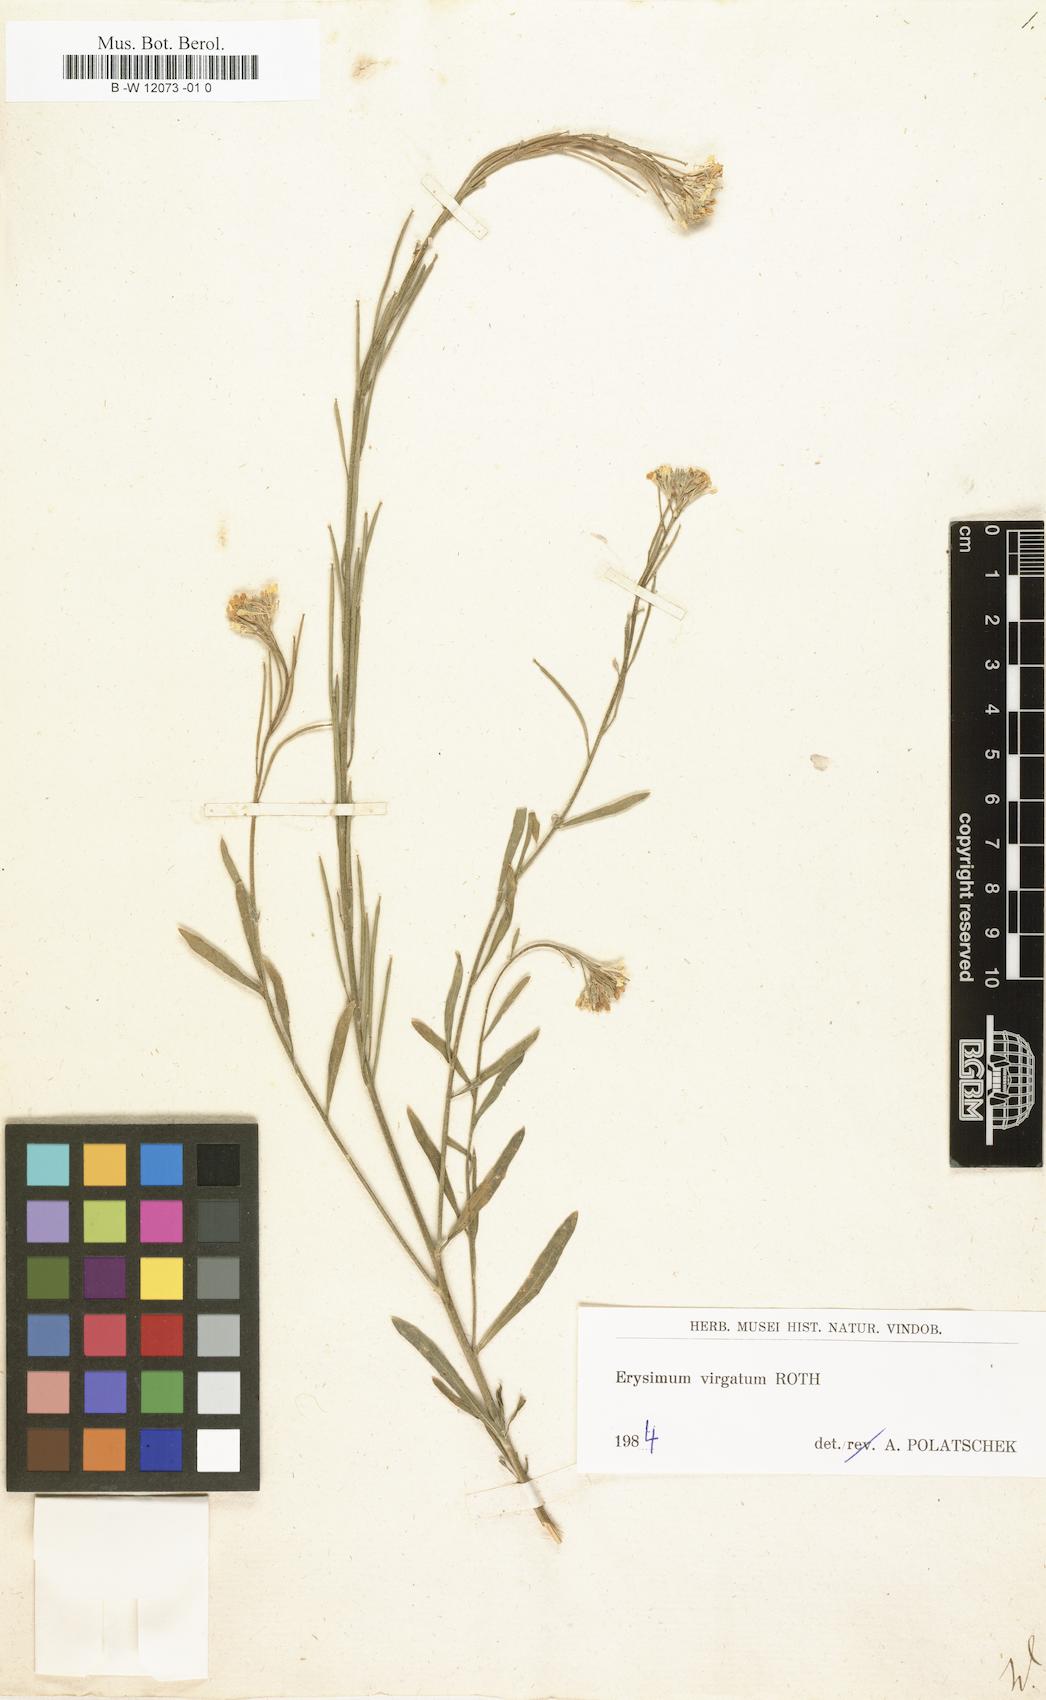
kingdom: Plantae
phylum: Tracheophyta
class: Magnoliopsida
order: Brassicales
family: Brassicaceae
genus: Erysimum
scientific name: Erysimum
